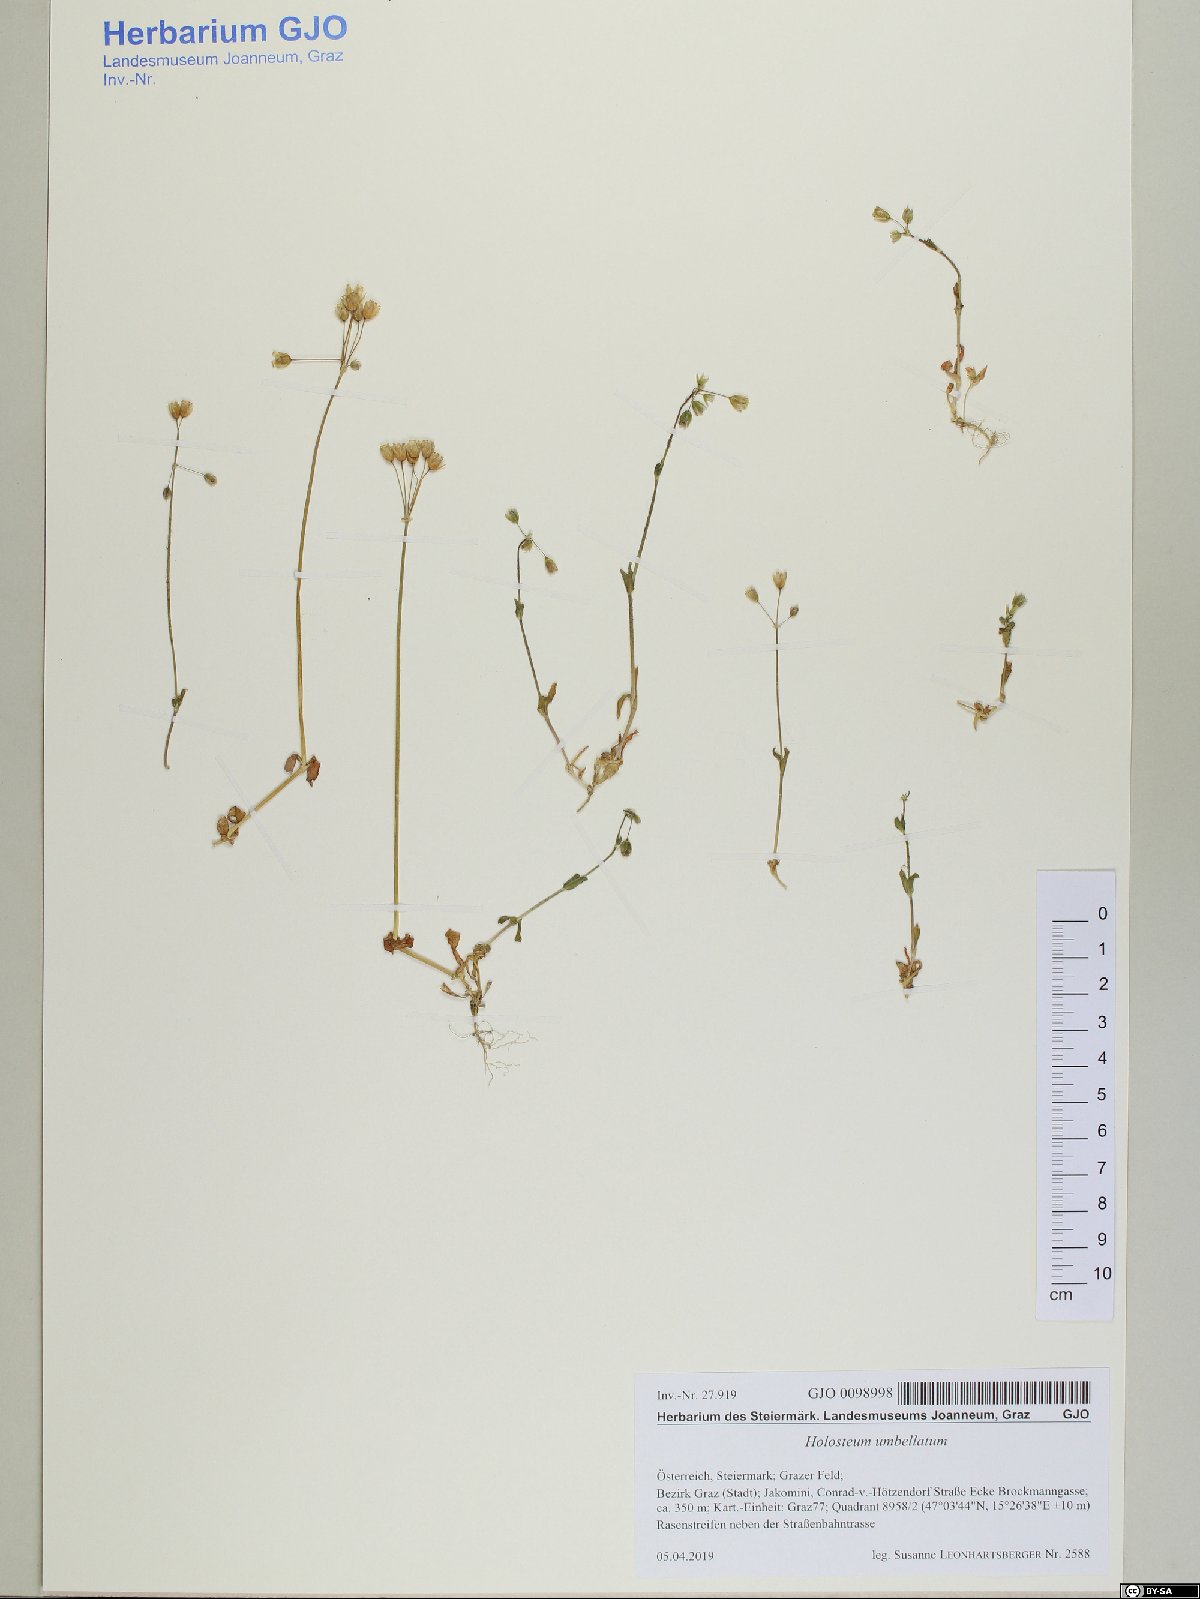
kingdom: Plantae
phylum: Tracheophyta
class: Magnoliopsida
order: Caryophyllales
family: Caryophyllaceae
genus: Holosteum
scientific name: Holosteum umbellatum
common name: Jagged chickweed
